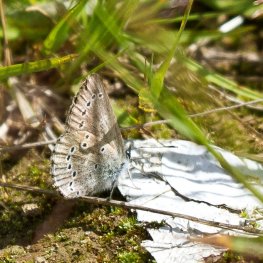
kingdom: Animalia
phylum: Arthropoda
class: Insecta
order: Lepidoptera
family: Lycaenidae
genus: Glaucopsyche
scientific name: Glaucopsyche lygdamus
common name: Silvery Blue
